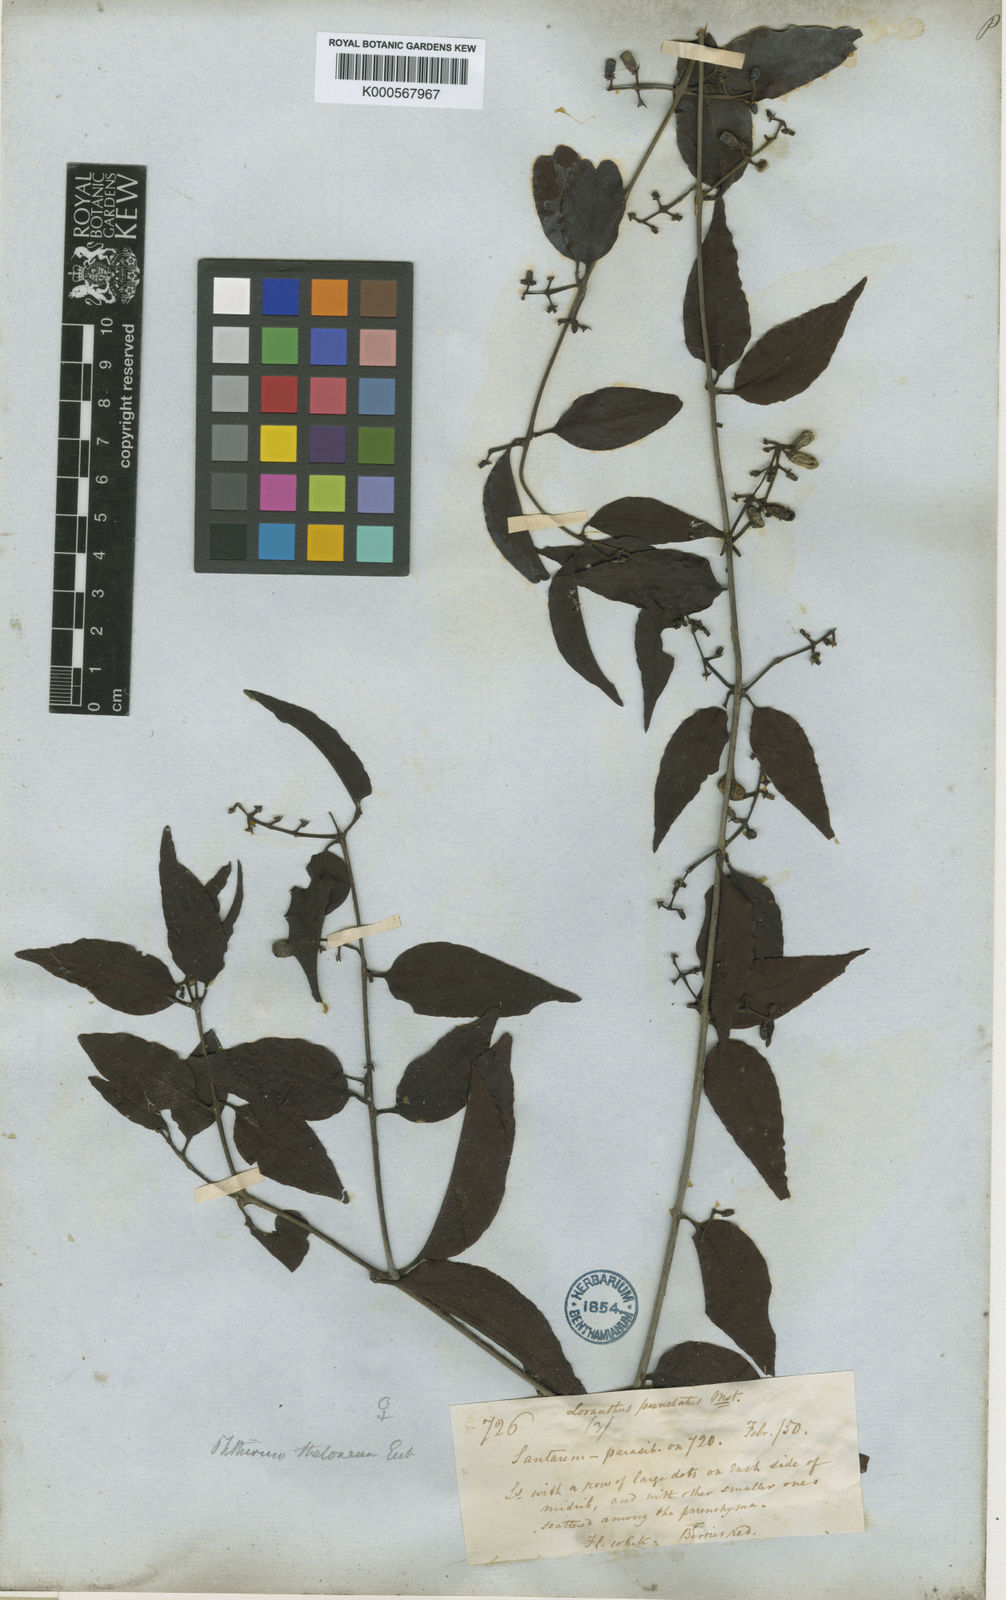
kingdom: Plantae
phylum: Tracheophyta
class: Magnoliopsida
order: Santalales
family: Loranthaceae
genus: Passovia
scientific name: Passovia theloneura
